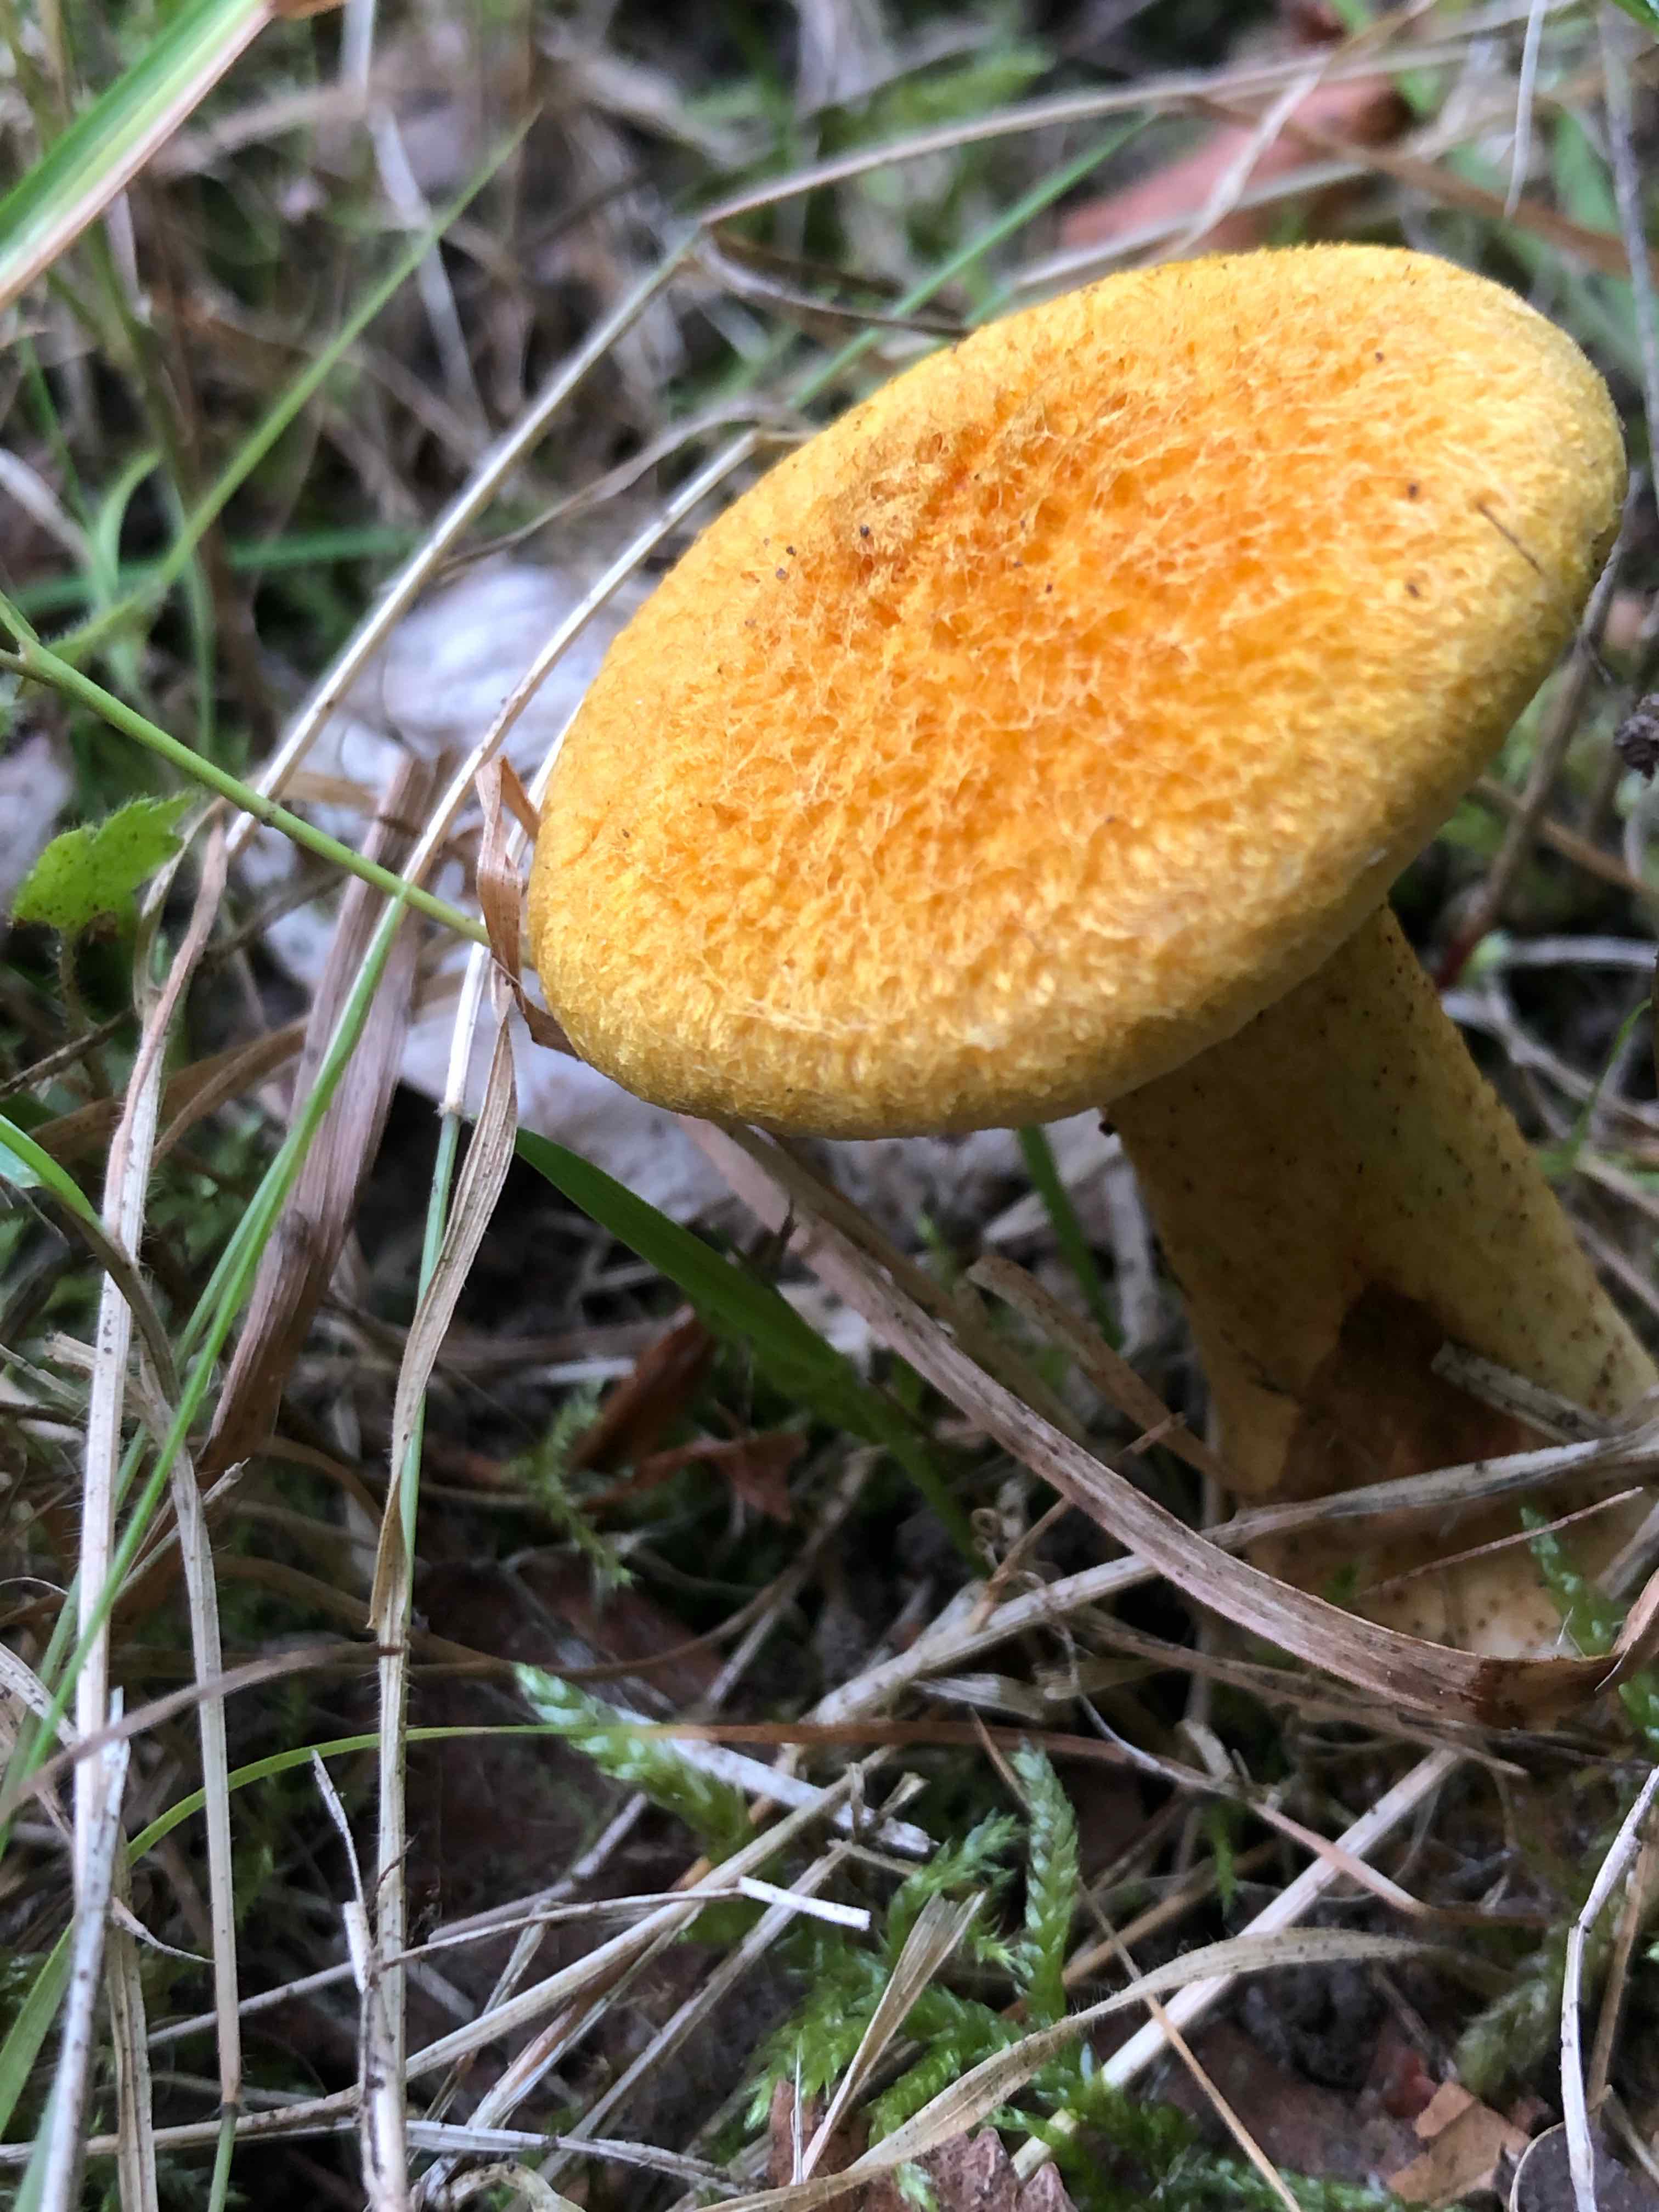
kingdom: Fungi
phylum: Basidiomycota
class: Agaricomycetes
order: Boletales
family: Suillaceae
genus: Suillus
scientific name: Suillus cavipes
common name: hulstokket slimrørhat, gul form
